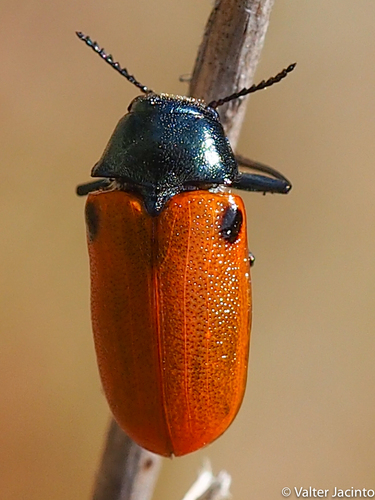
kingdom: Animalia
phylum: Arthropoda
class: Insecta
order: Coleoptera
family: Chrysomelidae
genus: Labidostomis
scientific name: Labidostomis
